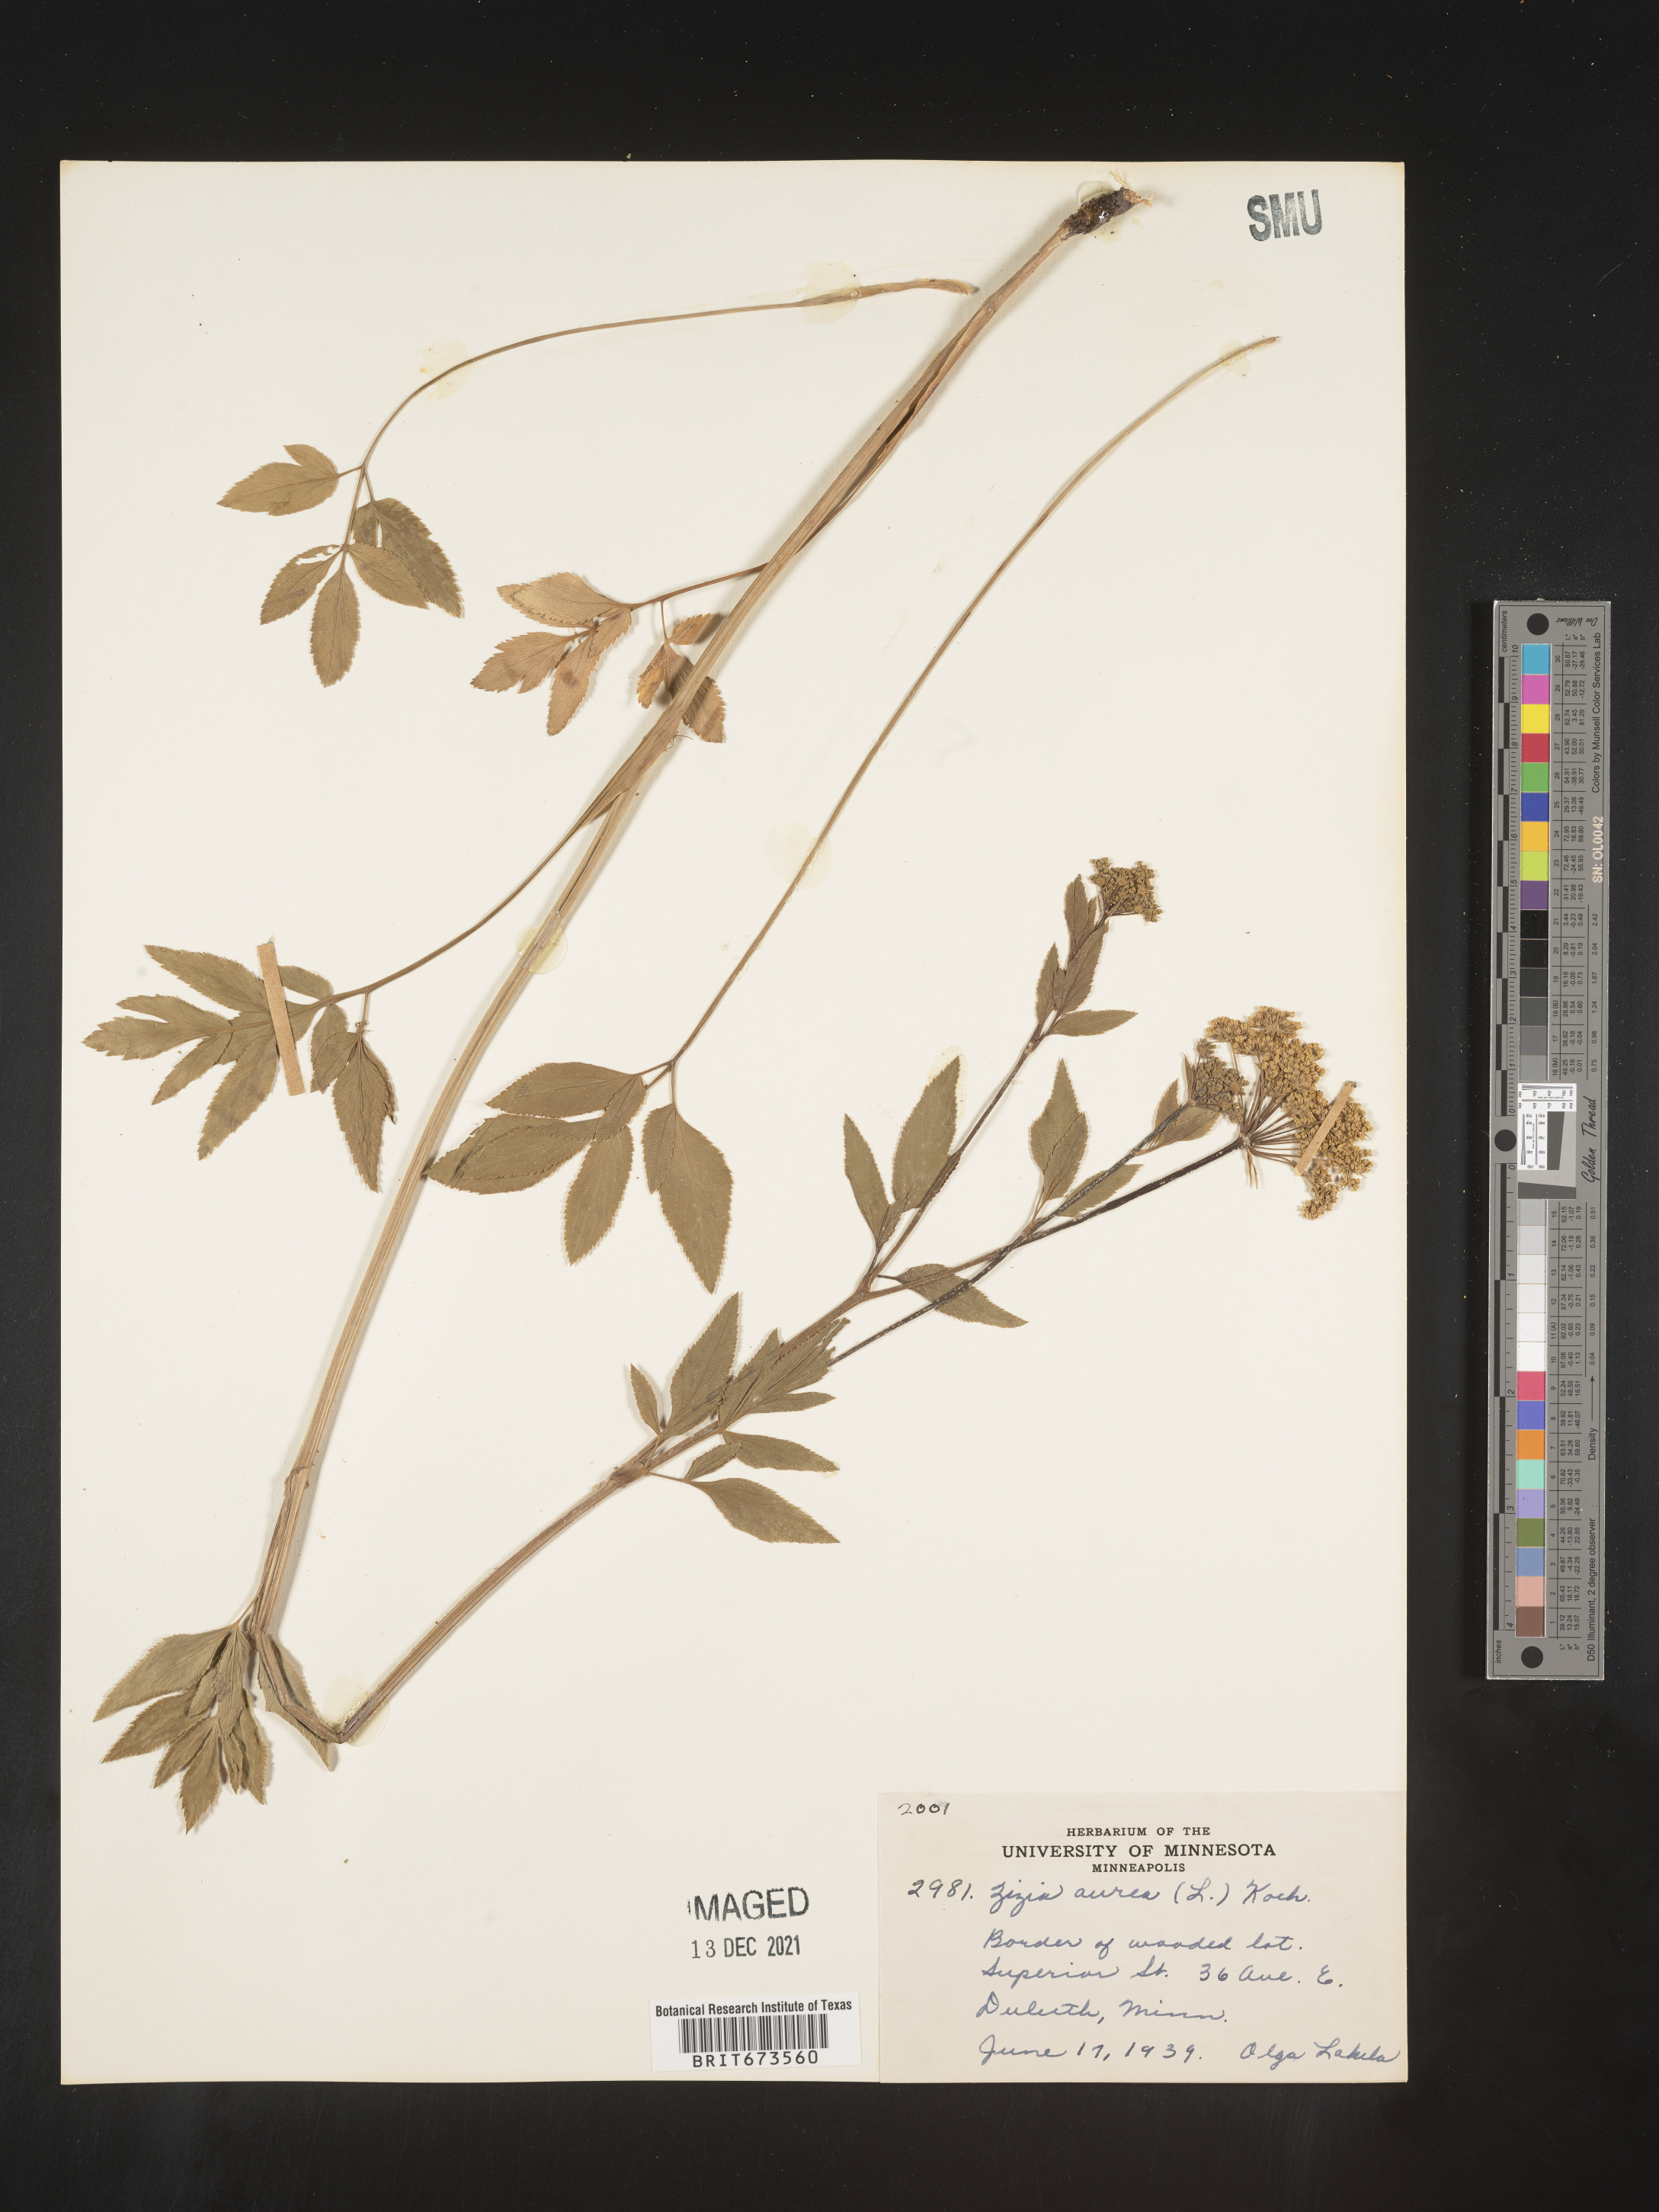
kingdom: Plantae
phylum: Tracheophyta
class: Magnoliopsida
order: Apiales
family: Apiaceae
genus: Zizia
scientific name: Zizia aurea
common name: Golden alexanders
